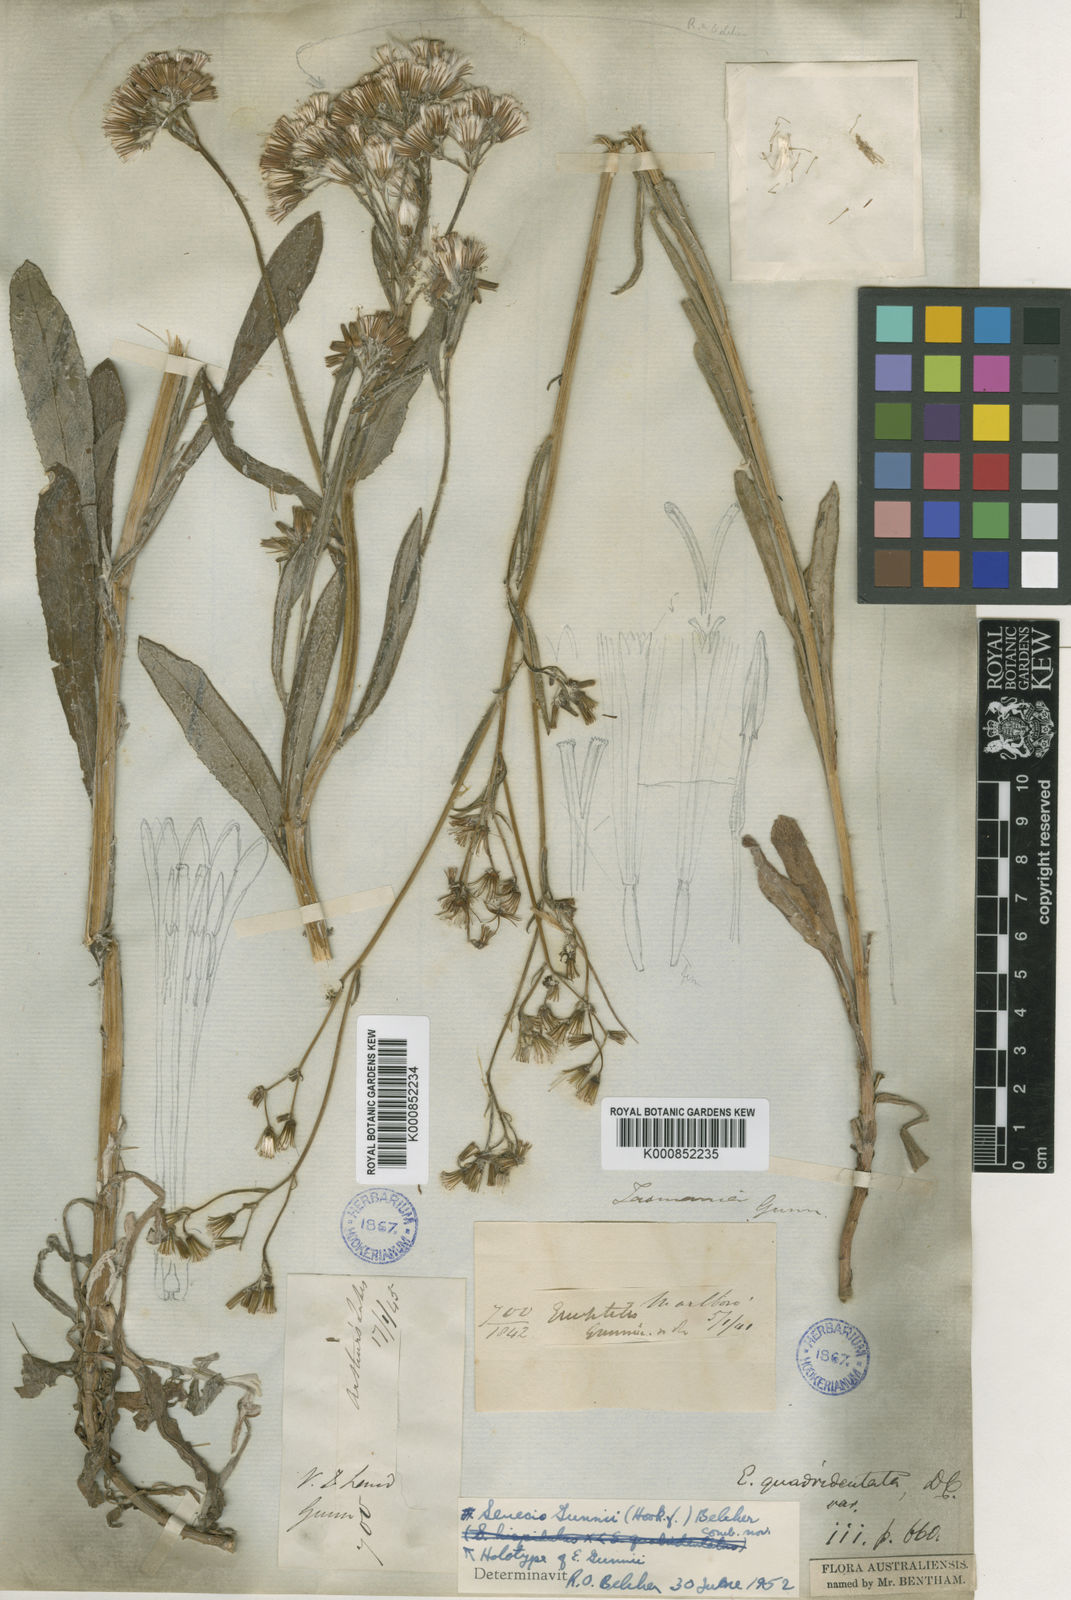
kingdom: Plantae
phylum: Tracheophyta
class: Magnoliopsida
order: Asterales
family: Asteraceae
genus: Senecio
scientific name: Senecio gunnii
